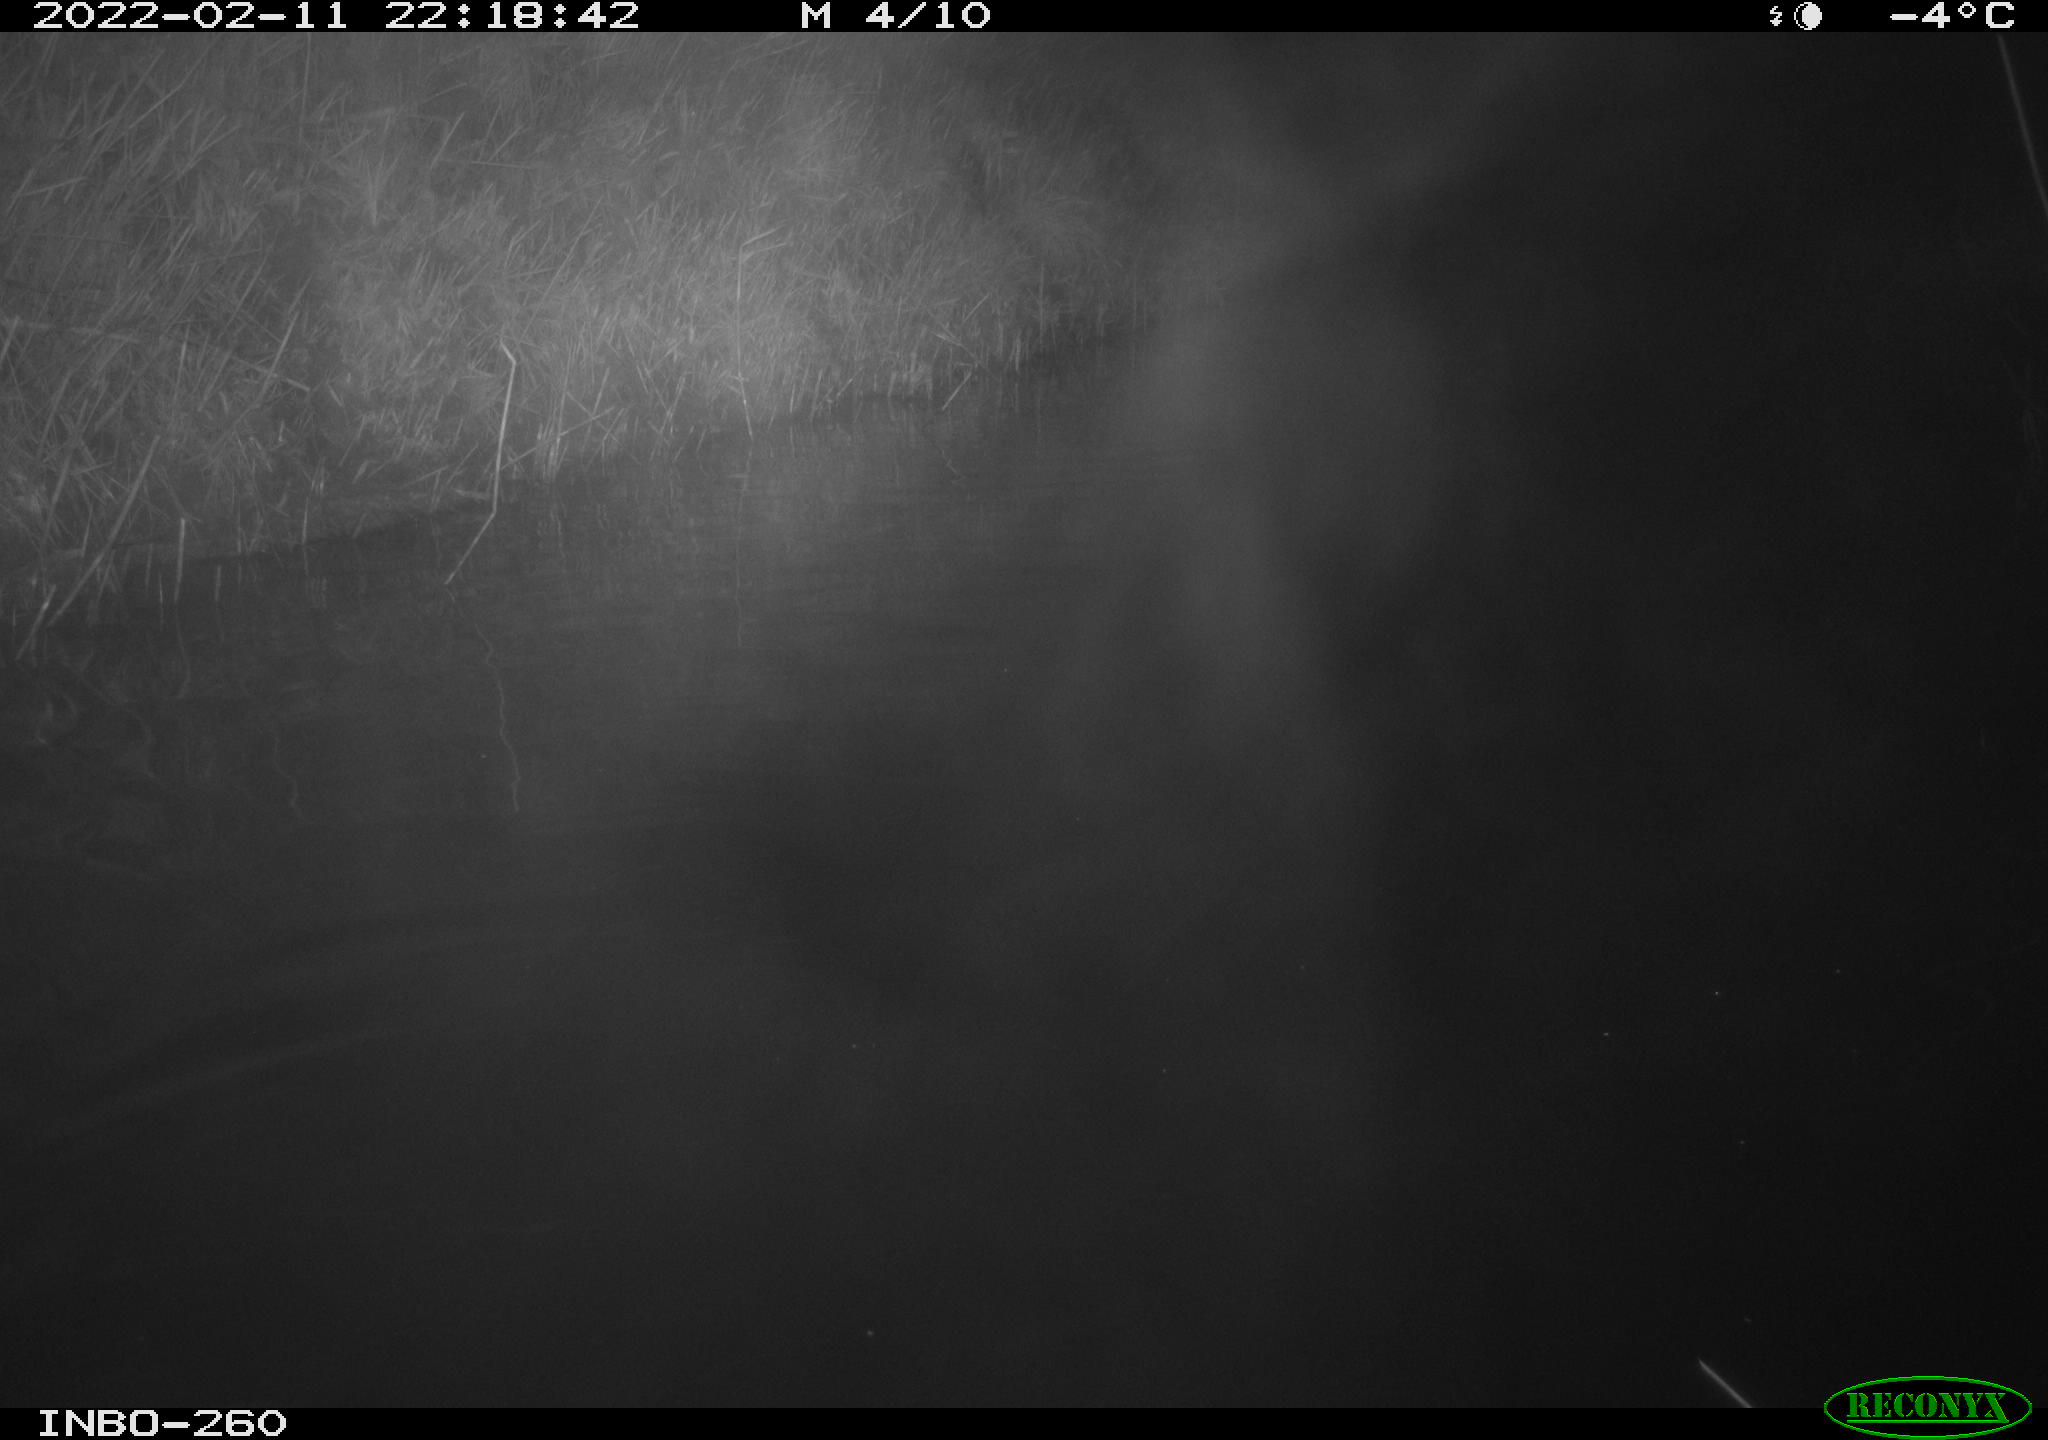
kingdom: Animalia
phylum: Chordata
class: Mammalia
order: Rodentia
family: Cricetidae
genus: Ondatra
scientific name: Ondatra zibethicus
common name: Muskrat
